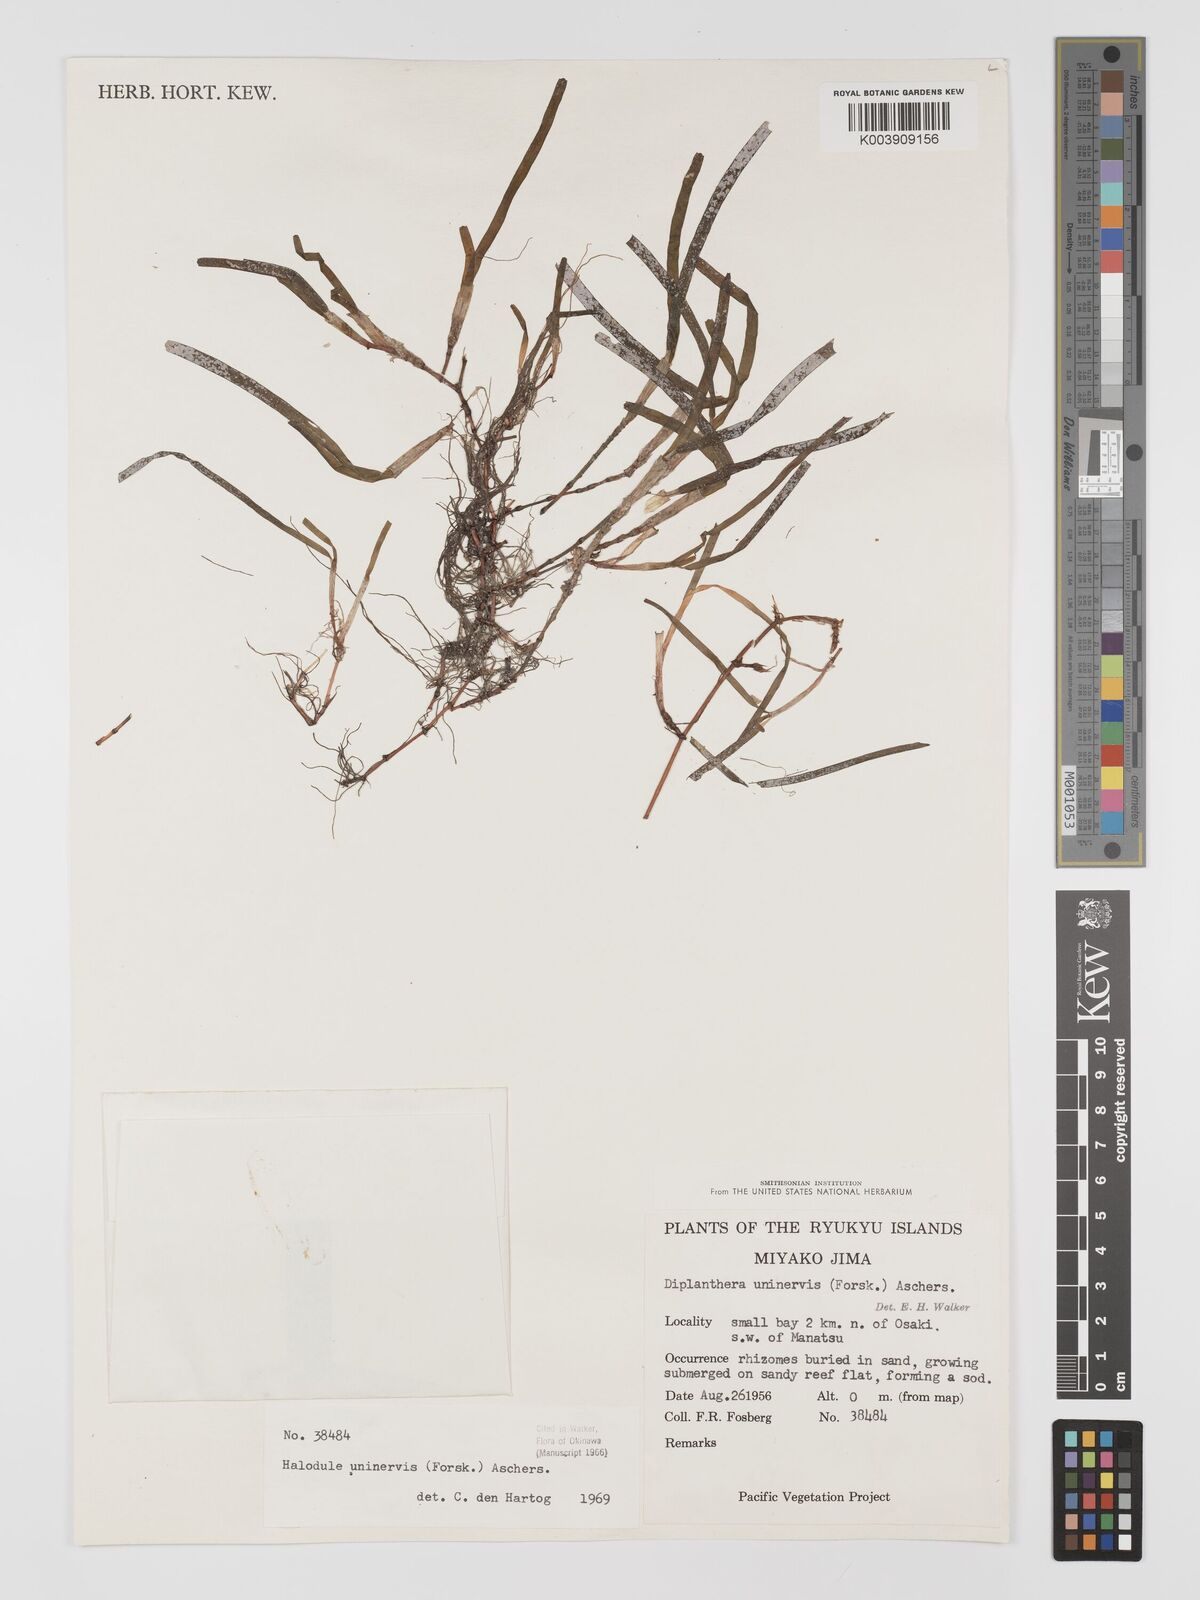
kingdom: Plantae
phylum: Tracheophyta
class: Liliopsida
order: Alismatales
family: Cymodoceaceae
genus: Halodule
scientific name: Halodule uninervis
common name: Narrowleaf seagrass
